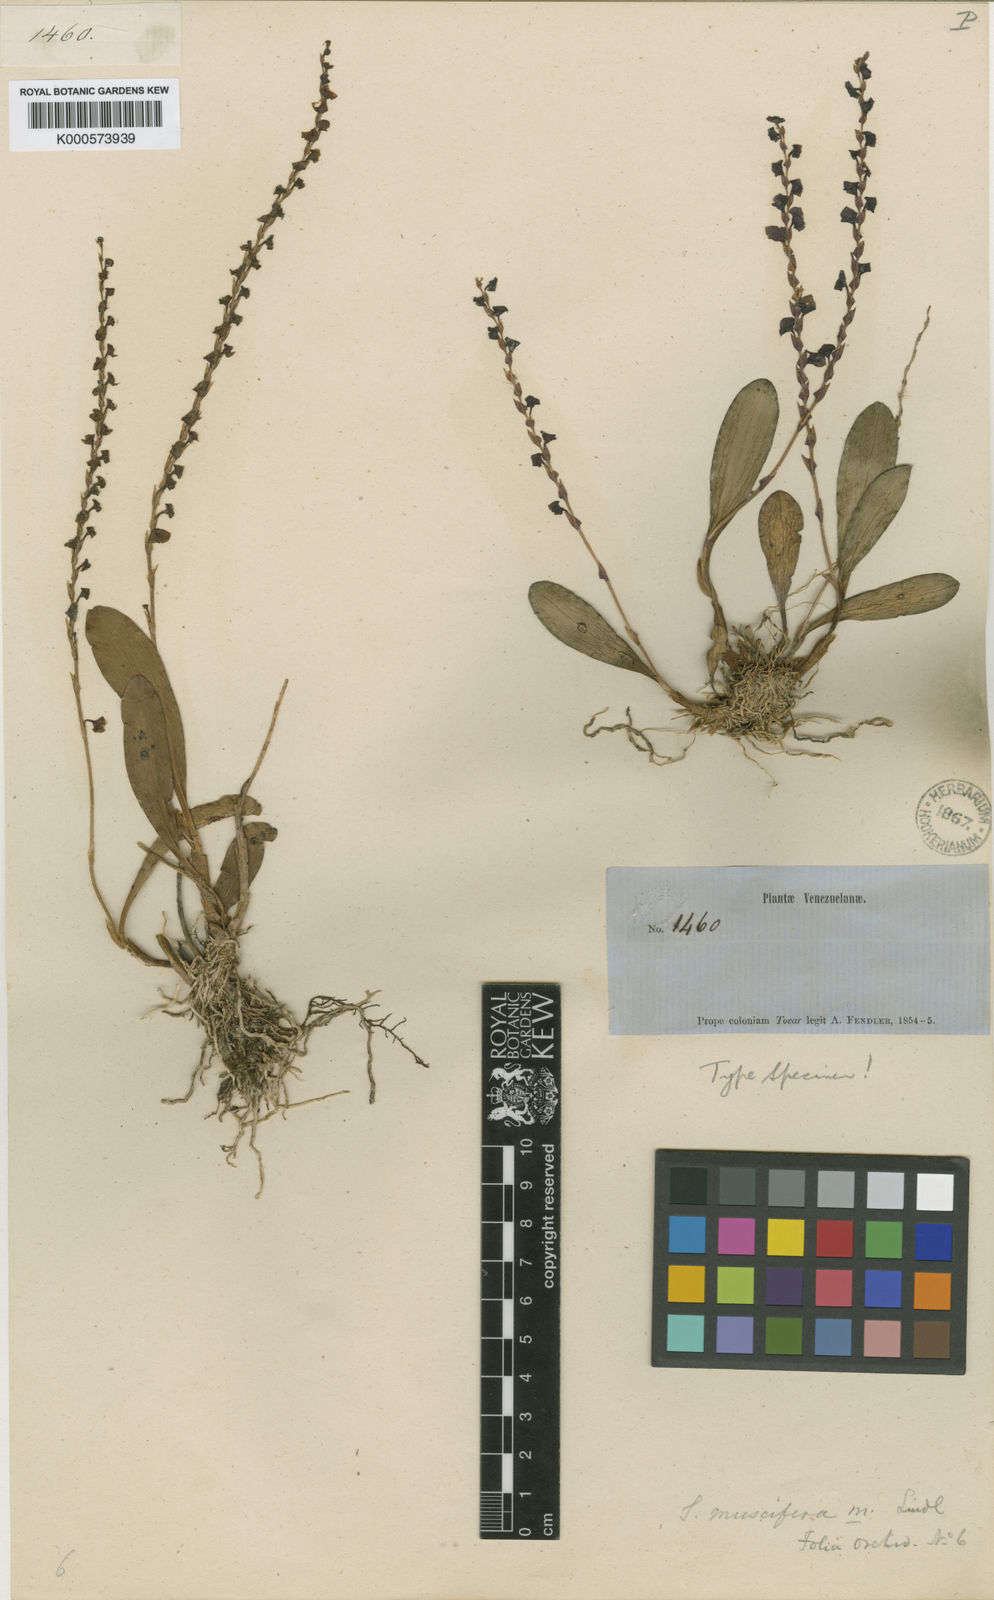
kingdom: Plantae
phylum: Tracheophyta
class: Liliopsida
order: Asparagales
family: Orchidaceae
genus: Stelis
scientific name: Stelis grandiflora
